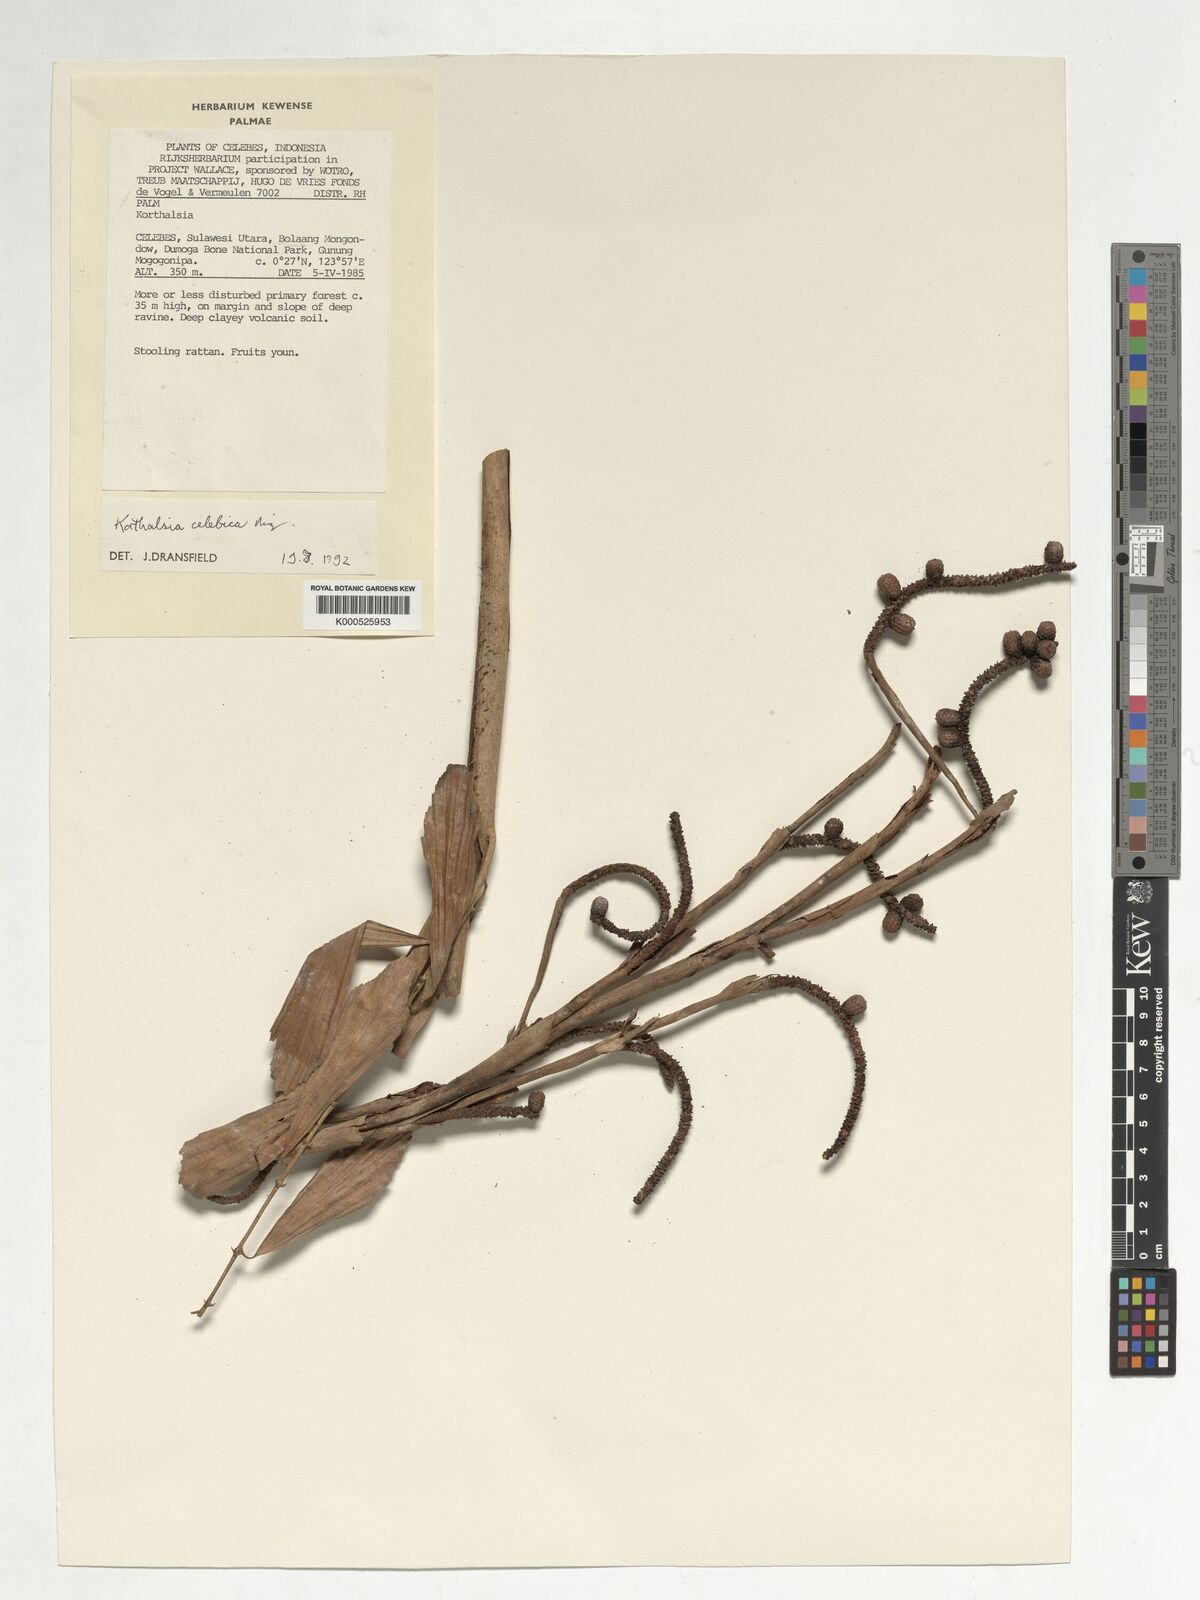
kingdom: Plantae
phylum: Tracheophyta
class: Liliopsida
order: Arecales
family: Arecaceae
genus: Korthalsia
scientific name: Korthalsia celebica
